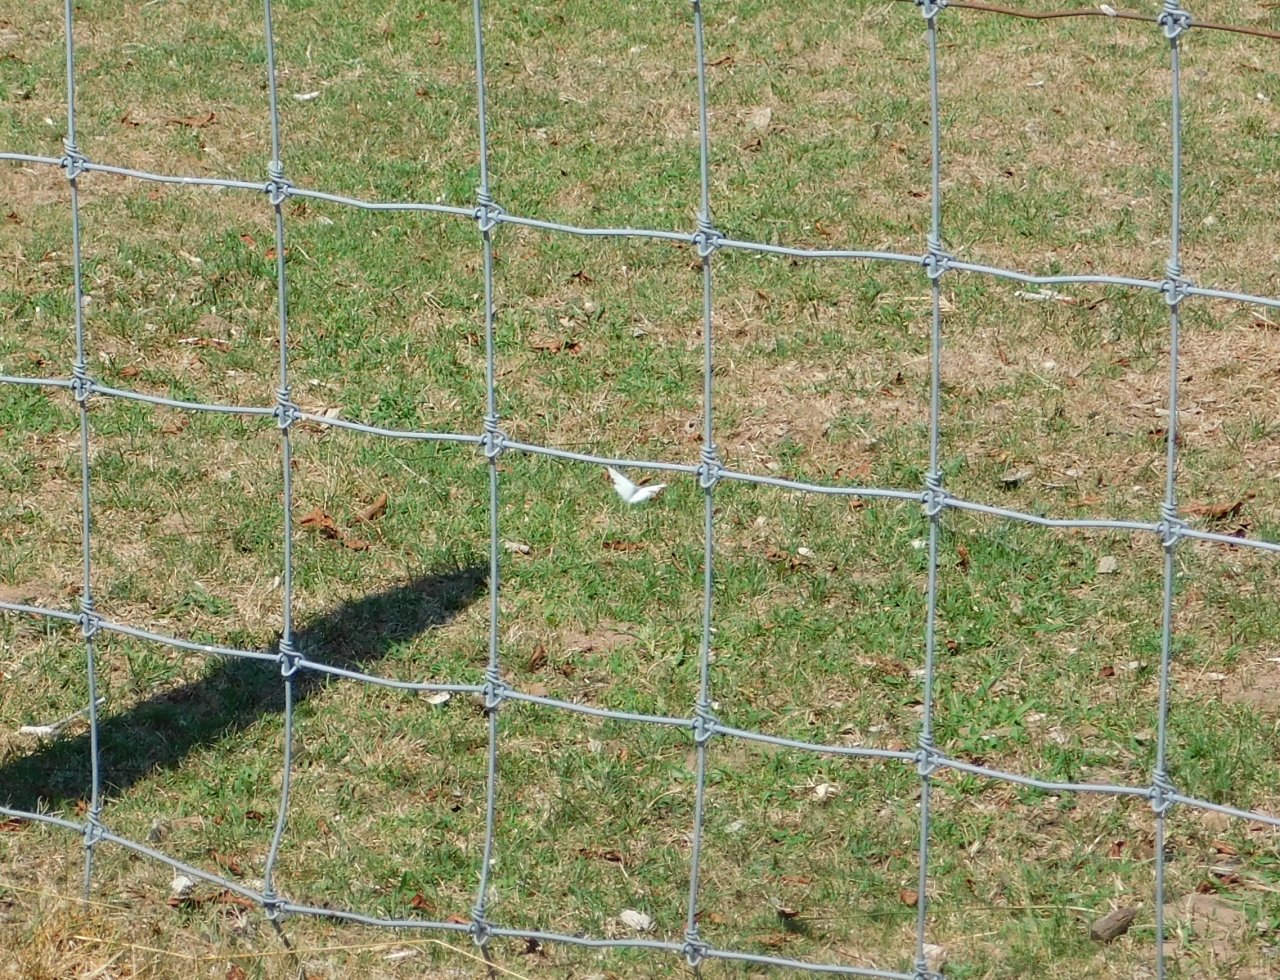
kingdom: Animalia
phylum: Arthropoda
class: Insecta
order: Lepidoptera
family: Pieridae
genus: Pieris
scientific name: Pieris rapae
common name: Cabbage White
